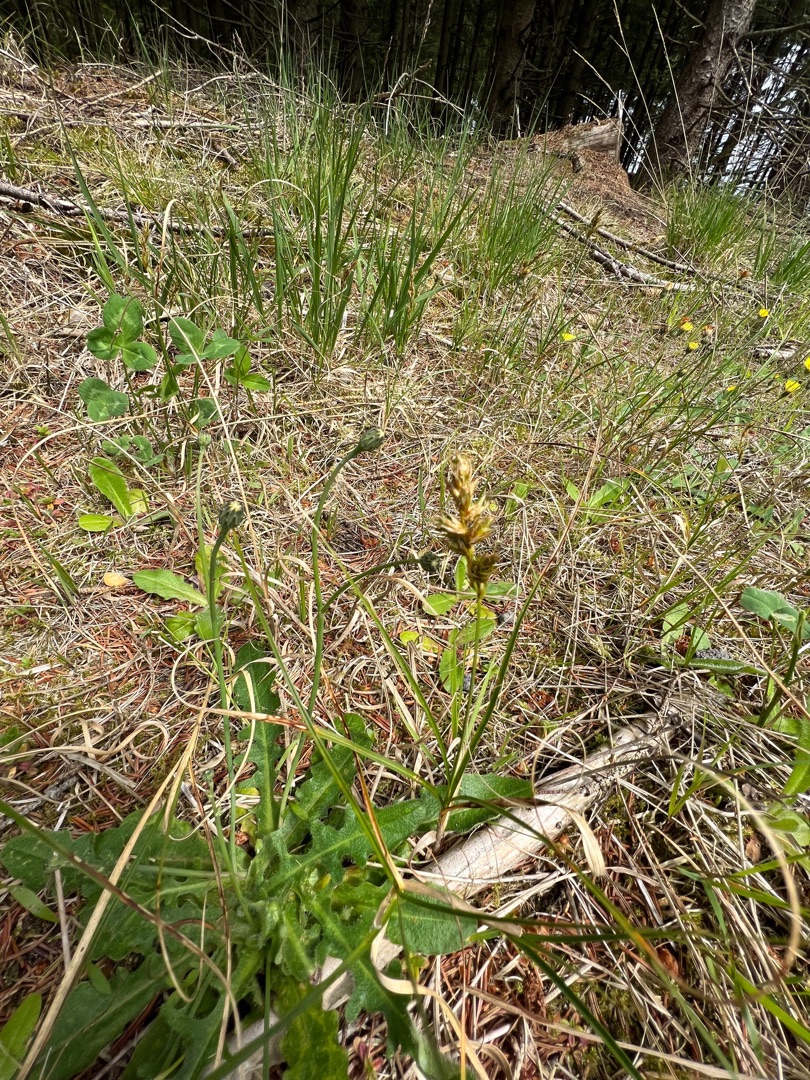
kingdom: Plantae
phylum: Tracheophyta
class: Liliopsida
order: Poales
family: Cyperaceae
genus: Carex
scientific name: Carex arenaria
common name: Sand-star
